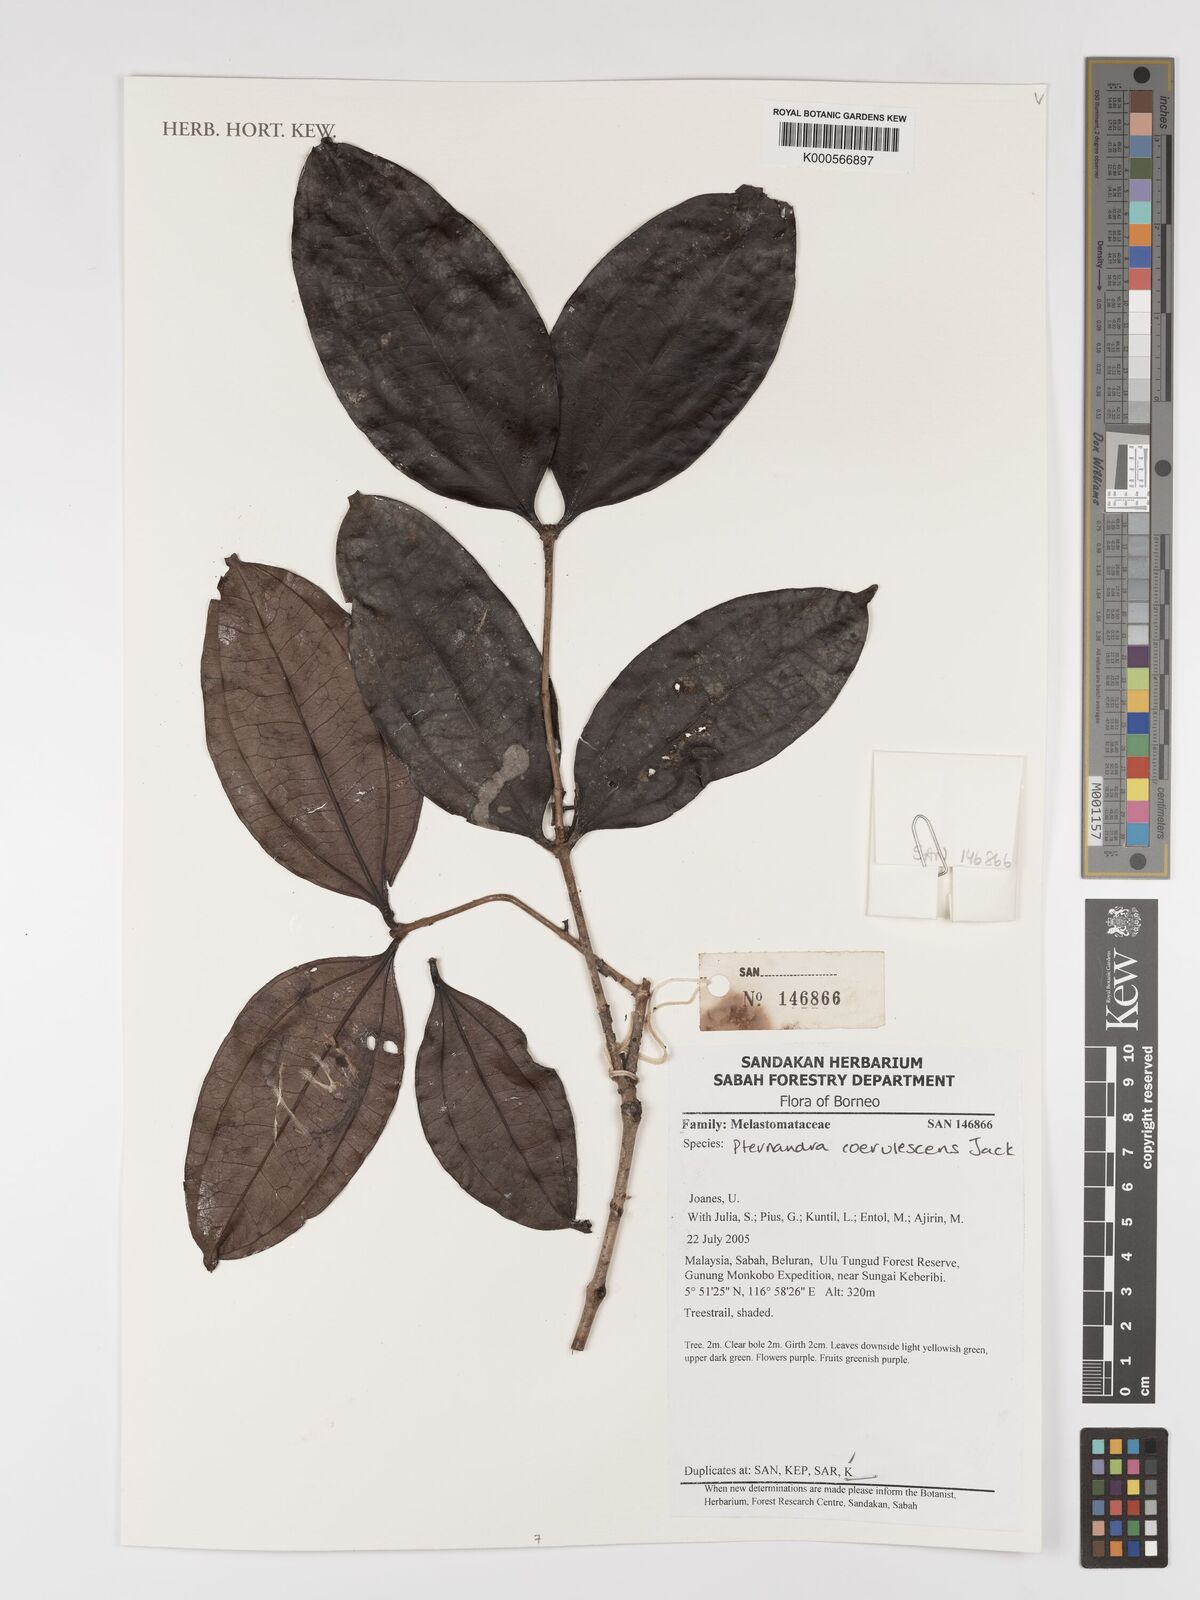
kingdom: Plantae
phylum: Tracheophyta
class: Magnoliopsida
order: Myrtales
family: Melastomataceae
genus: Pternandra
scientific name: Pternandra
